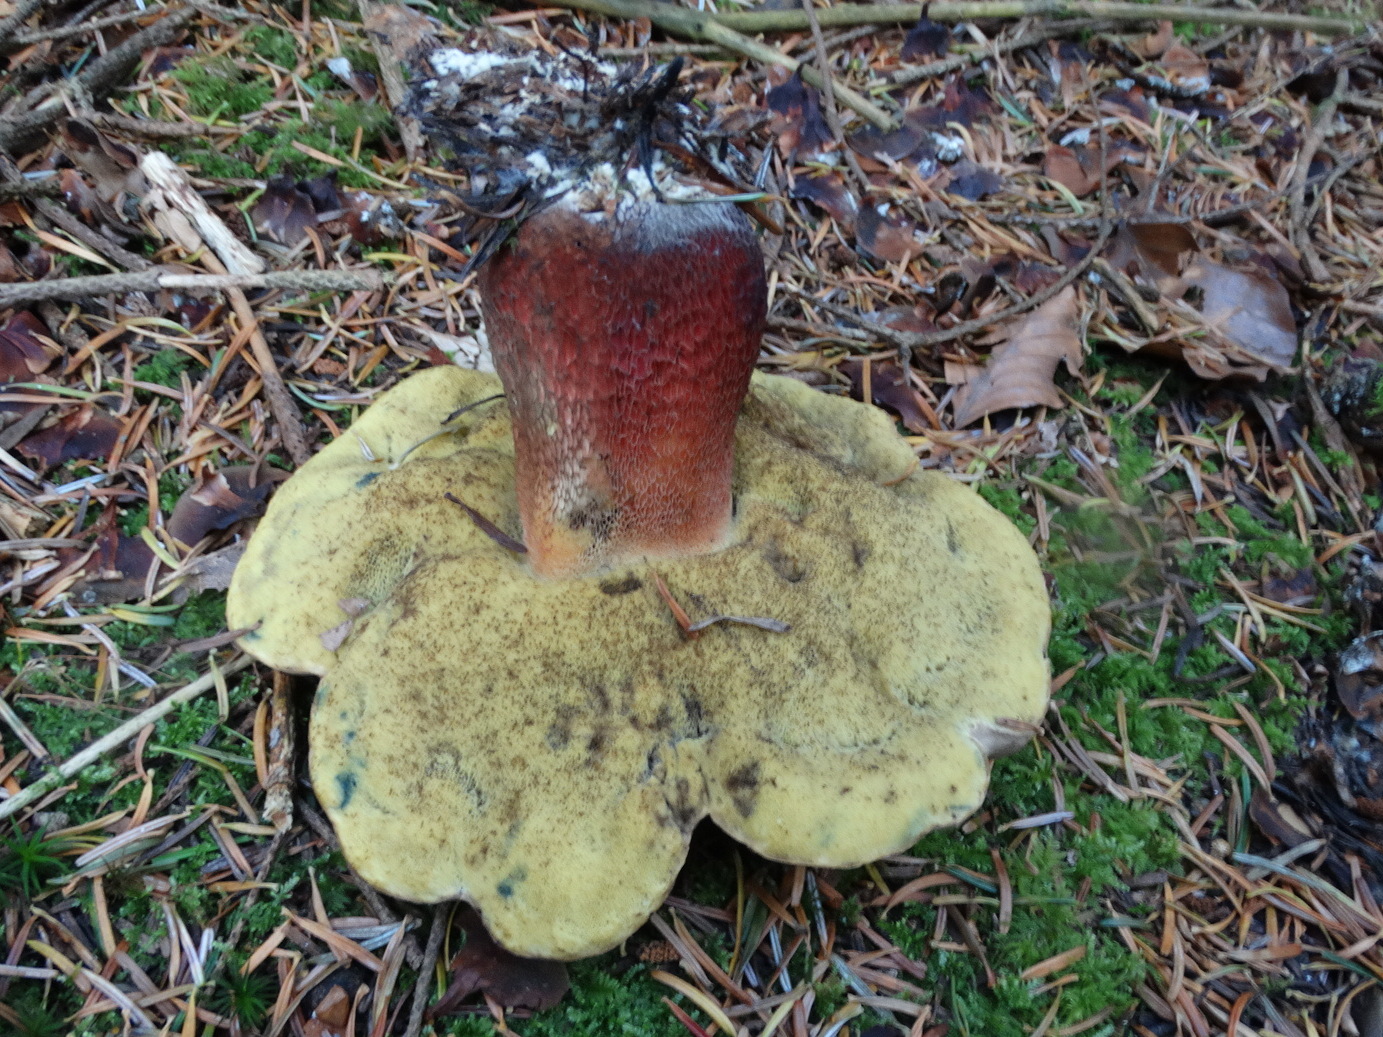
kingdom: Fungi
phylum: Basidiomycota
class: Agaricomycetes
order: Boletales
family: Boletaceae
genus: Caloboletus
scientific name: Caloboletus calopus
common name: skønfodet rørhat
